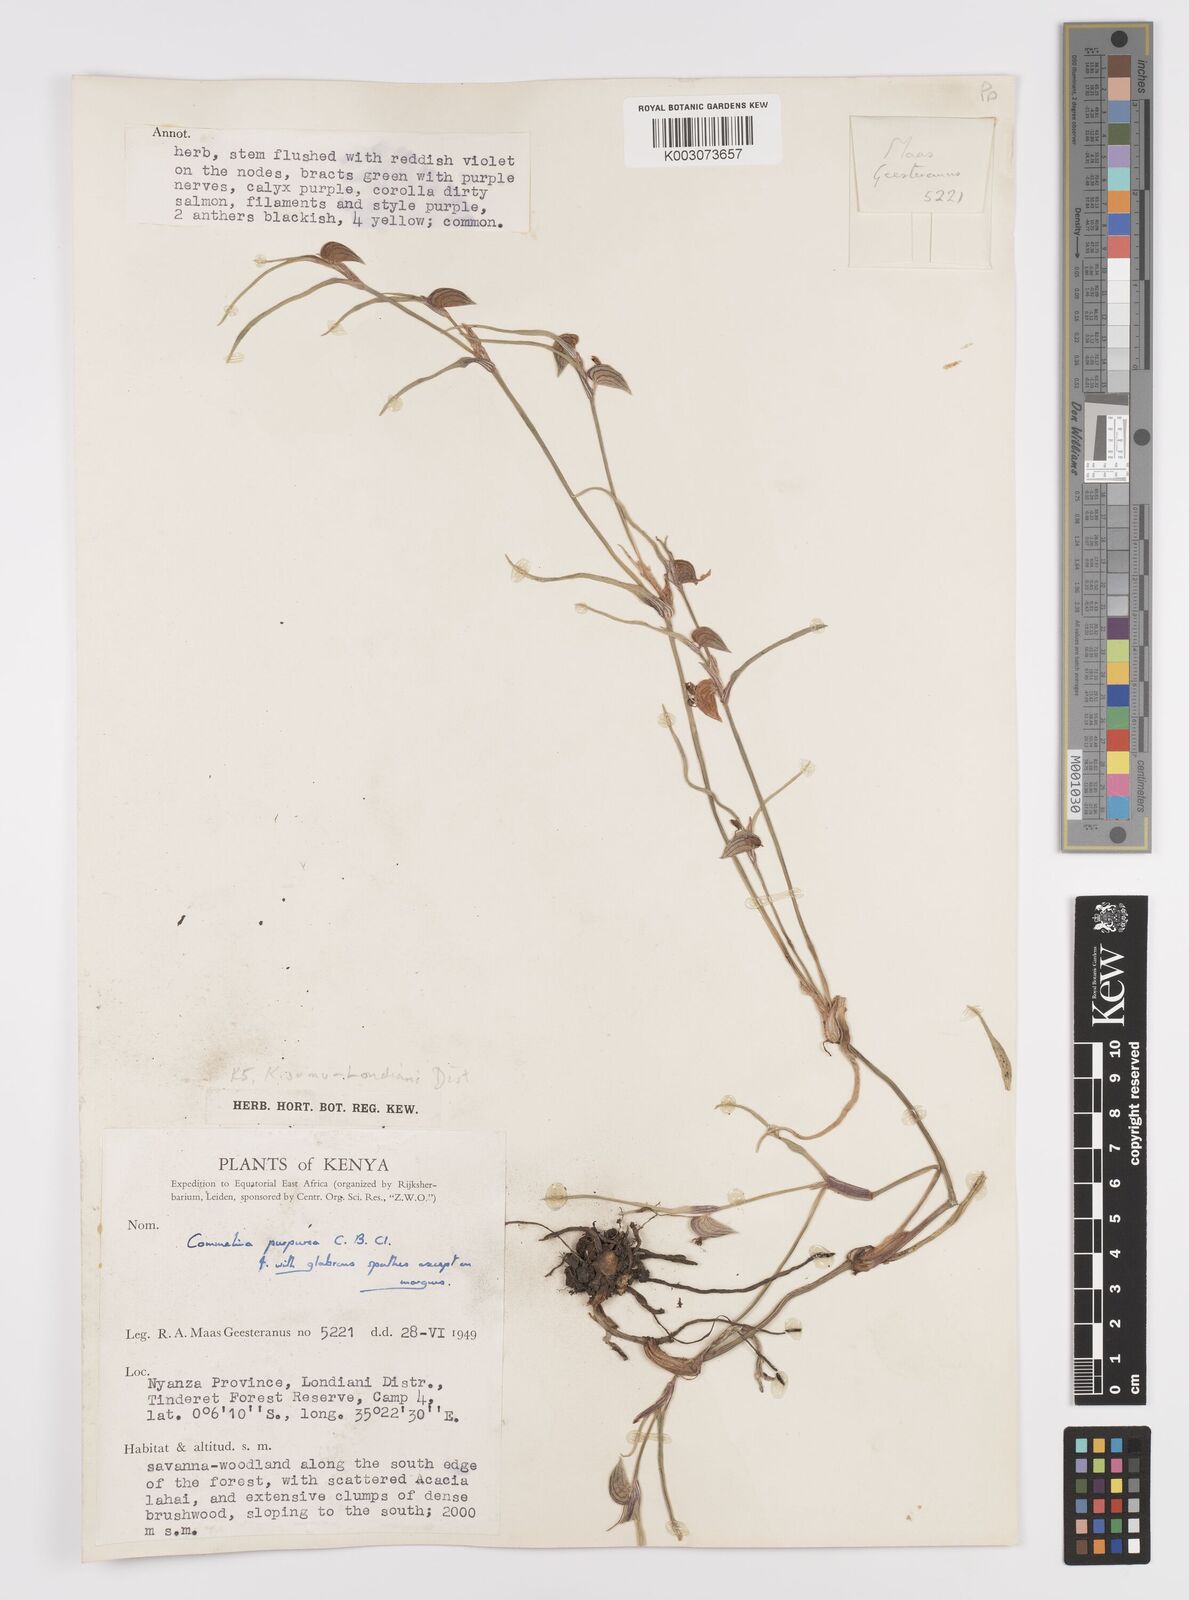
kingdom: Plantae
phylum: Tracheophyta
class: Liliopsida
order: Commelinales
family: Commelinaceae
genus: Commelina
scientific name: Commelina purpurea
